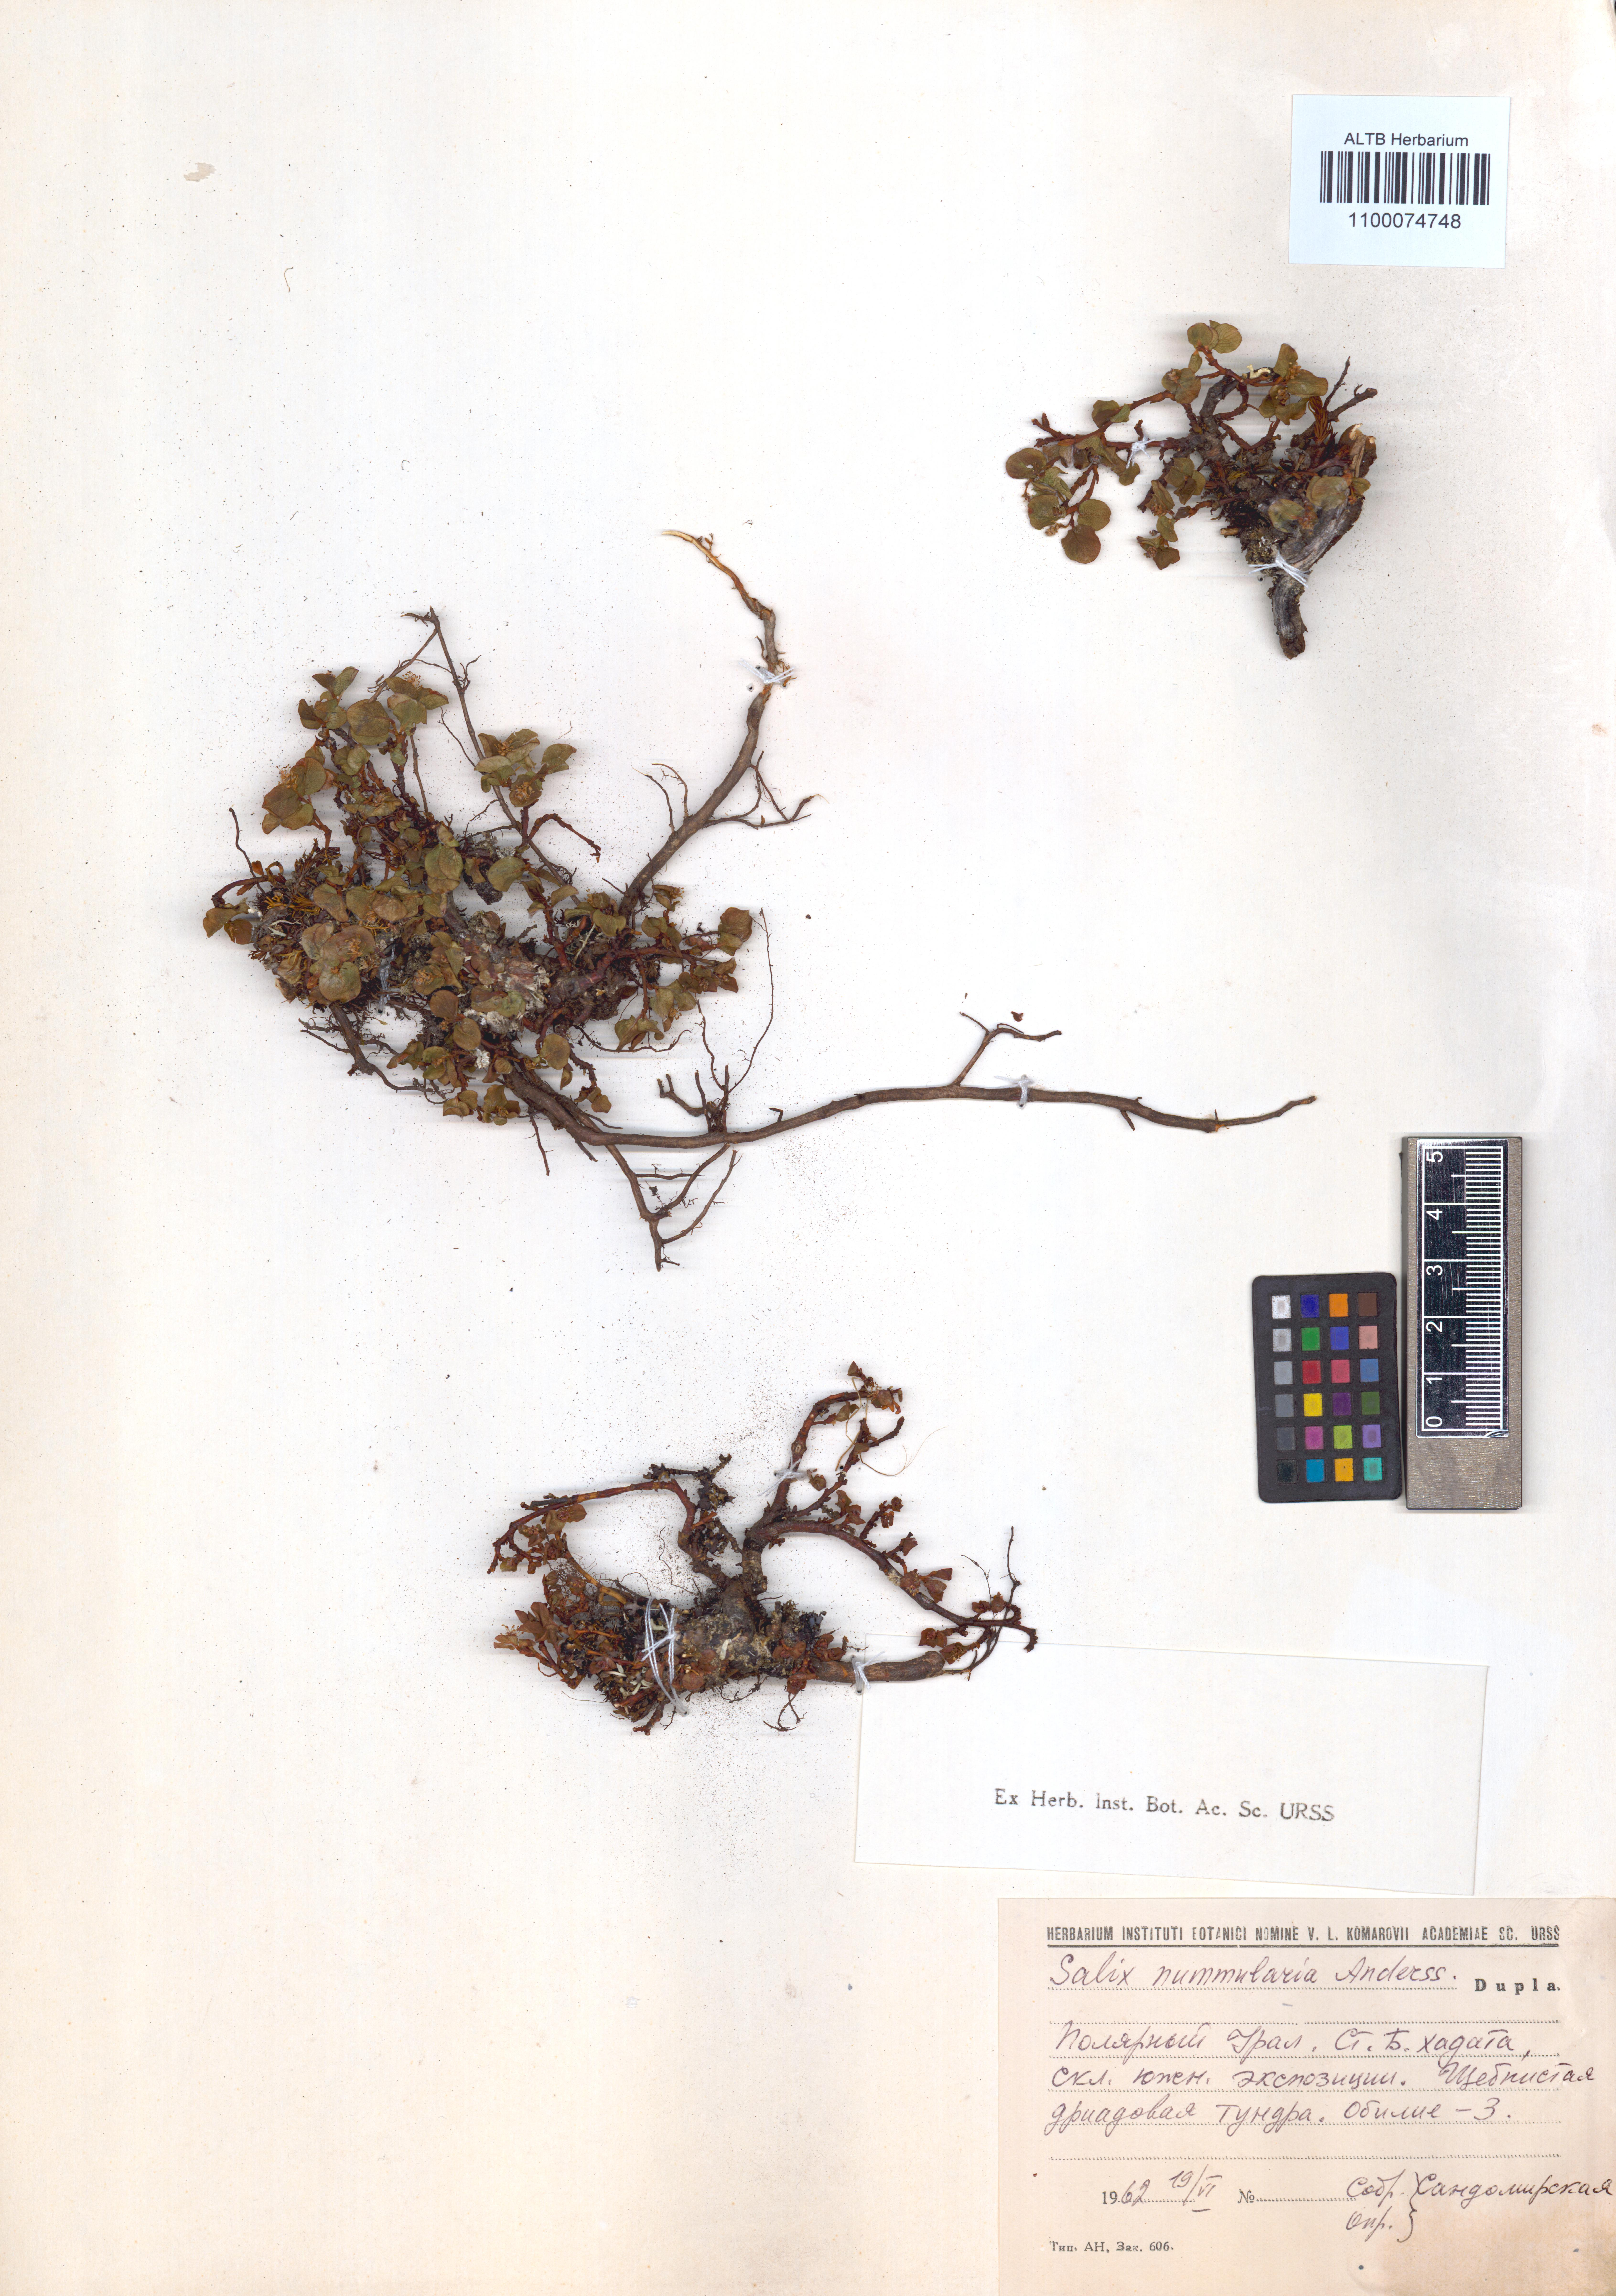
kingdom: Plantae
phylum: Tracheophyta
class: Magnoliopsida
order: Malpighiales
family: Salicaceae
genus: Salix
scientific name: Salix nummularia
